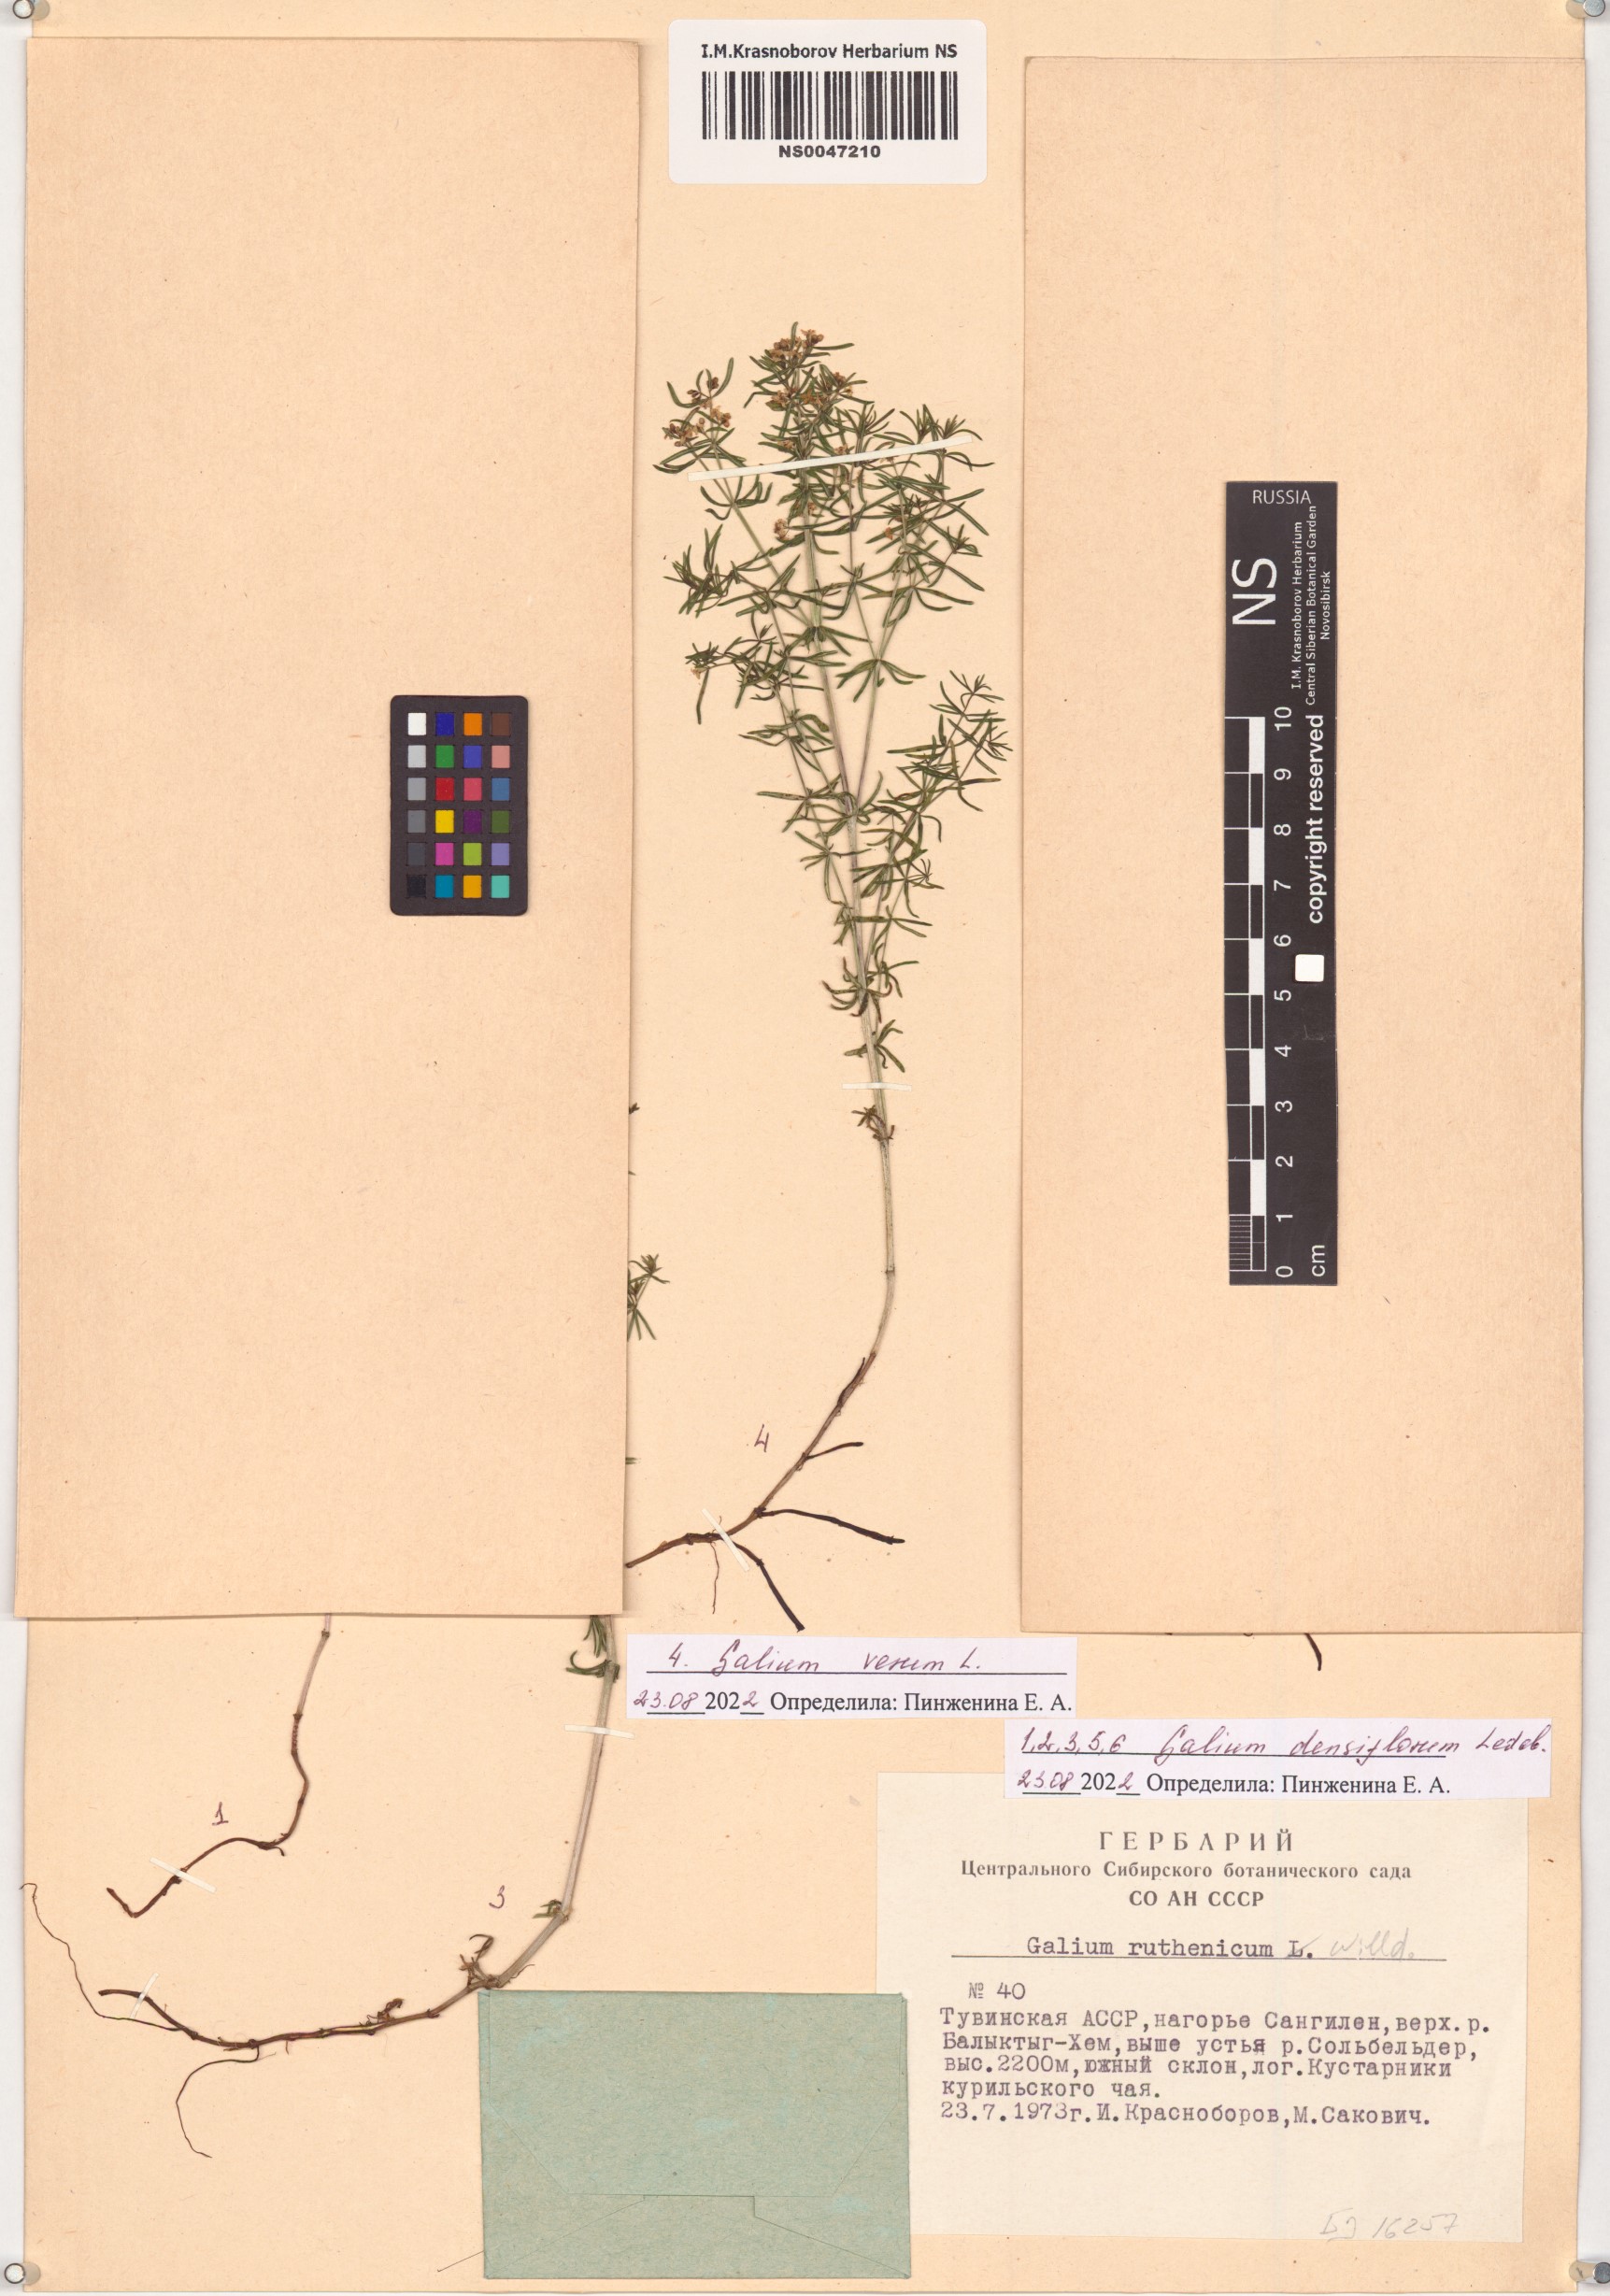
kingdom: Plantae
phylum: Tracheophyta
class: Magnoliopsida
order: Gentianales
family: Rubiaceae
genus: Galium
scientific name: Galium verum
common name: Lady's bedstraw
